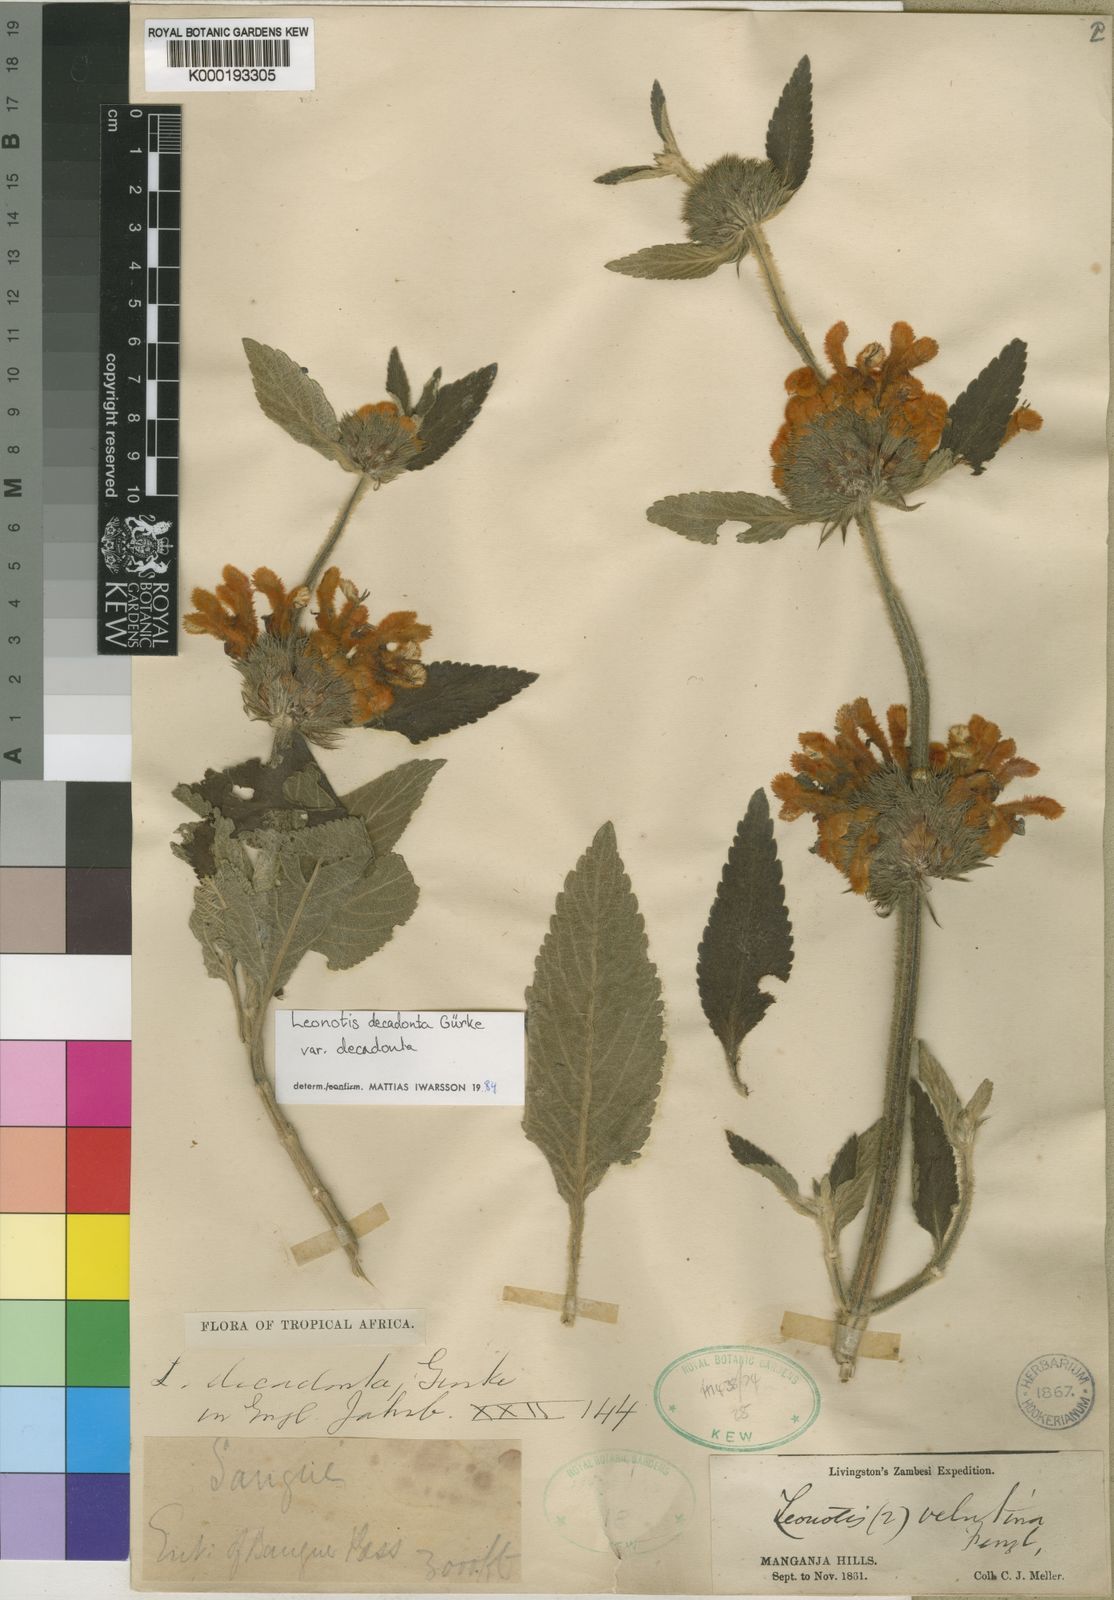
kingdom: Plantae
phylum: Tracheophyta
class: Magnoliopsida
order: Lamiales
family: Lamiaceae
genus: Leonotis
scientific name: Leonotis
